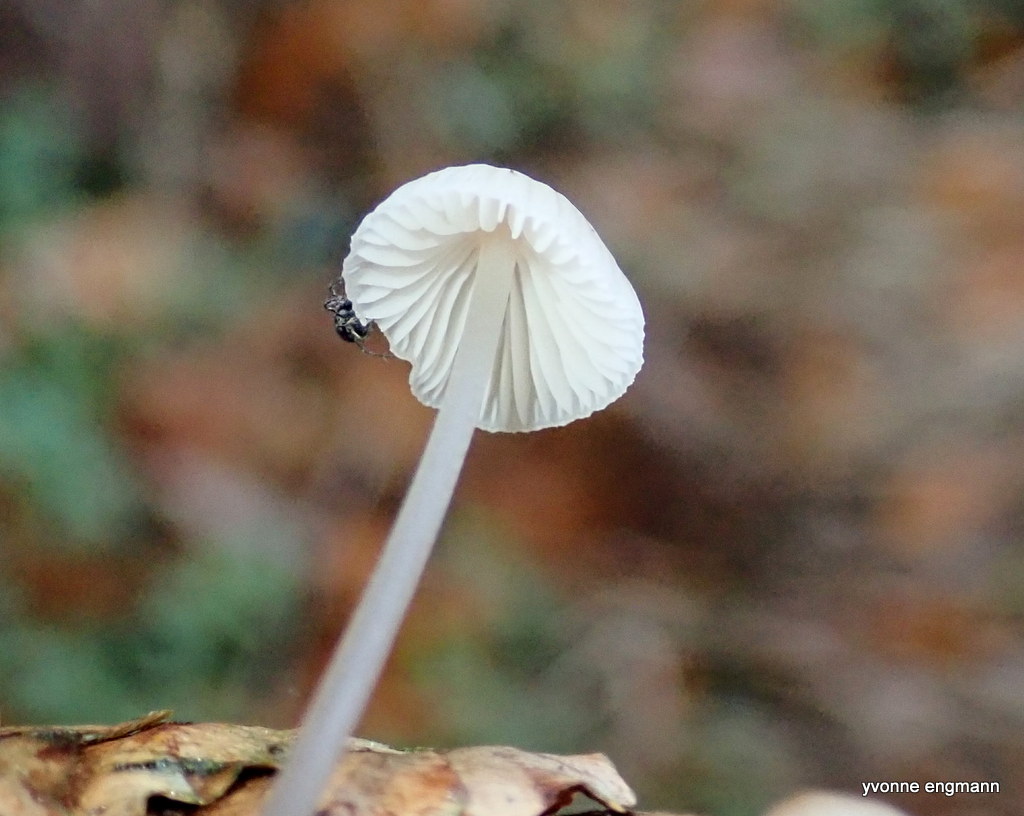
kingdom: Fungi
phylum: Basidiomycota
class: Agaricomycetes
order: Agaricales
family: Physalacriaceae
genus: Strobilurus
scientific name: Strobilurus esculentus
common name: gran-koglehat
